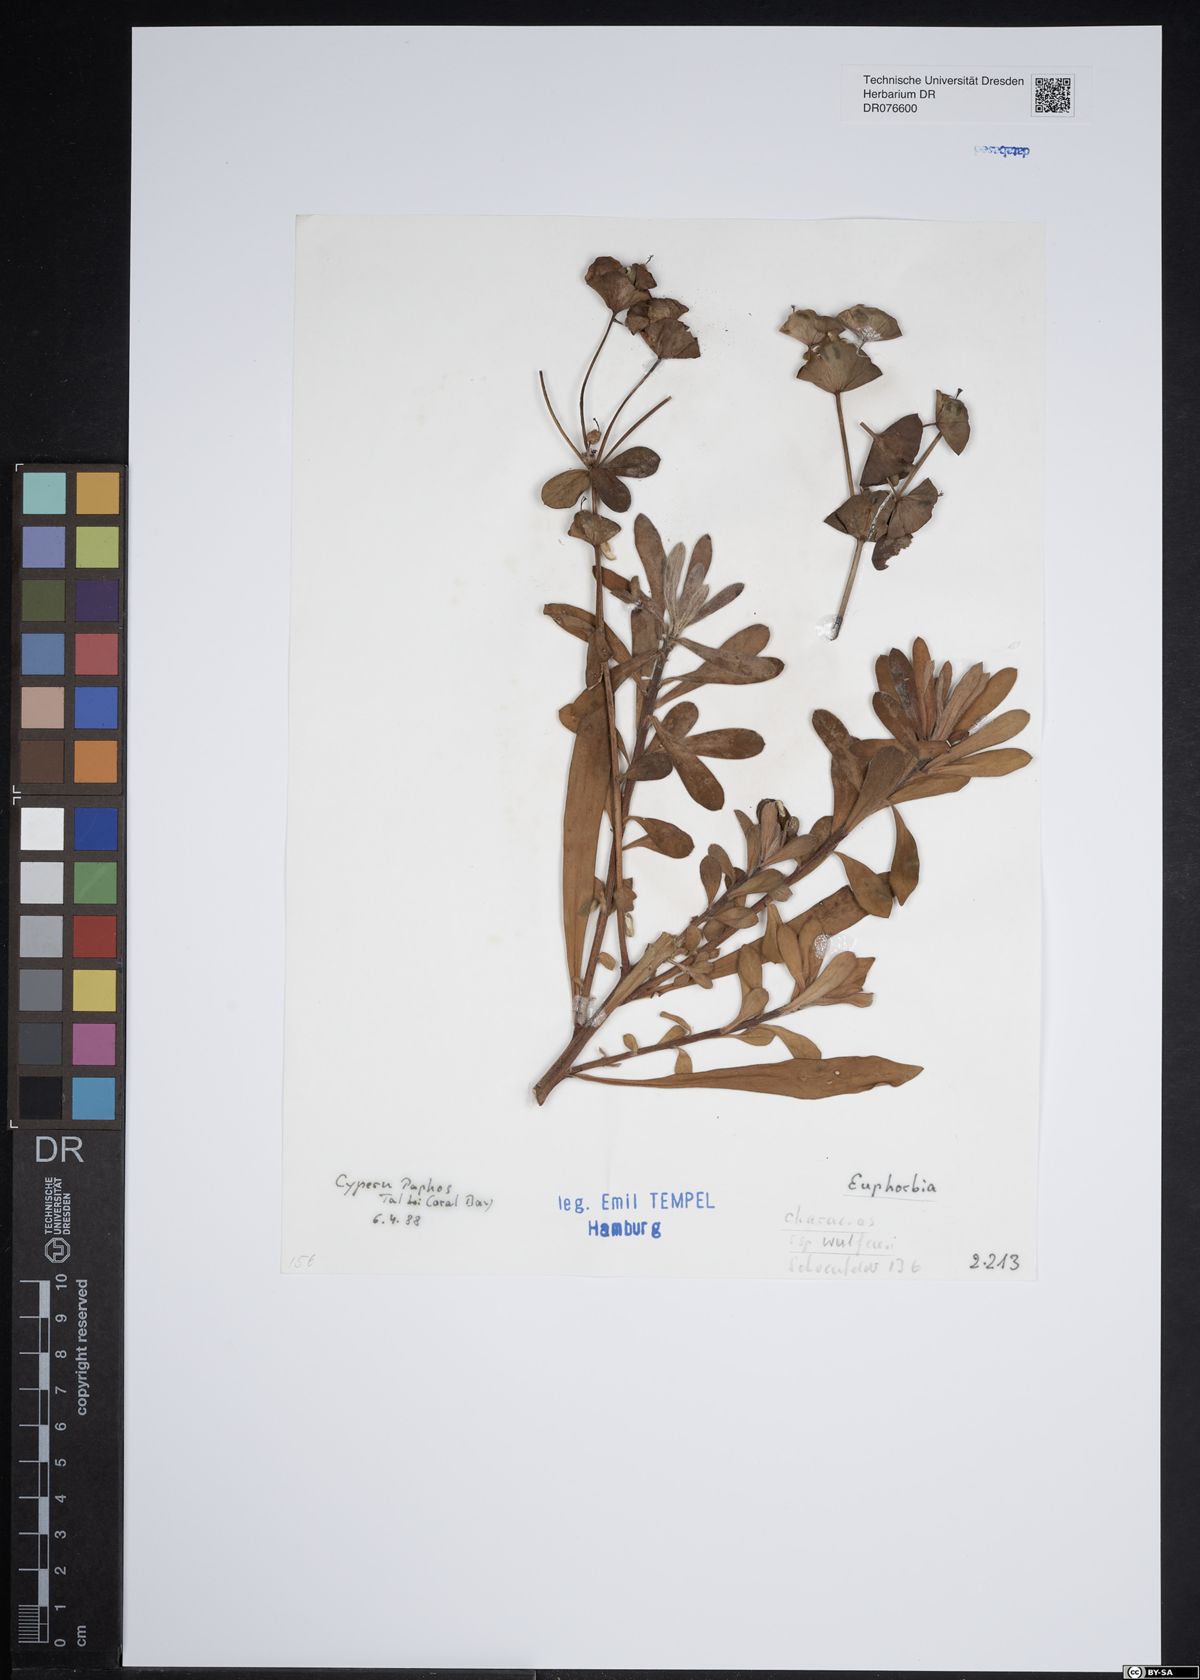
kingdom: Plantae
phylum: Tracheophyta
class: Magnoliopsida
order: Malpighiales
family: Euphorbiaceae
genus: Euphorbia
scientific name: Euphorbia characias
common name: Mediterranean spurge
